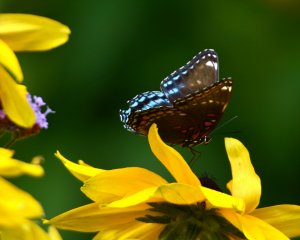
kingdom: Animalia
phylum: Arthropoda
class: Insecta
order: Lepidoptera
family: Nymphalidae
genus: Limenitis
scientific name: Limenitis astyanax
